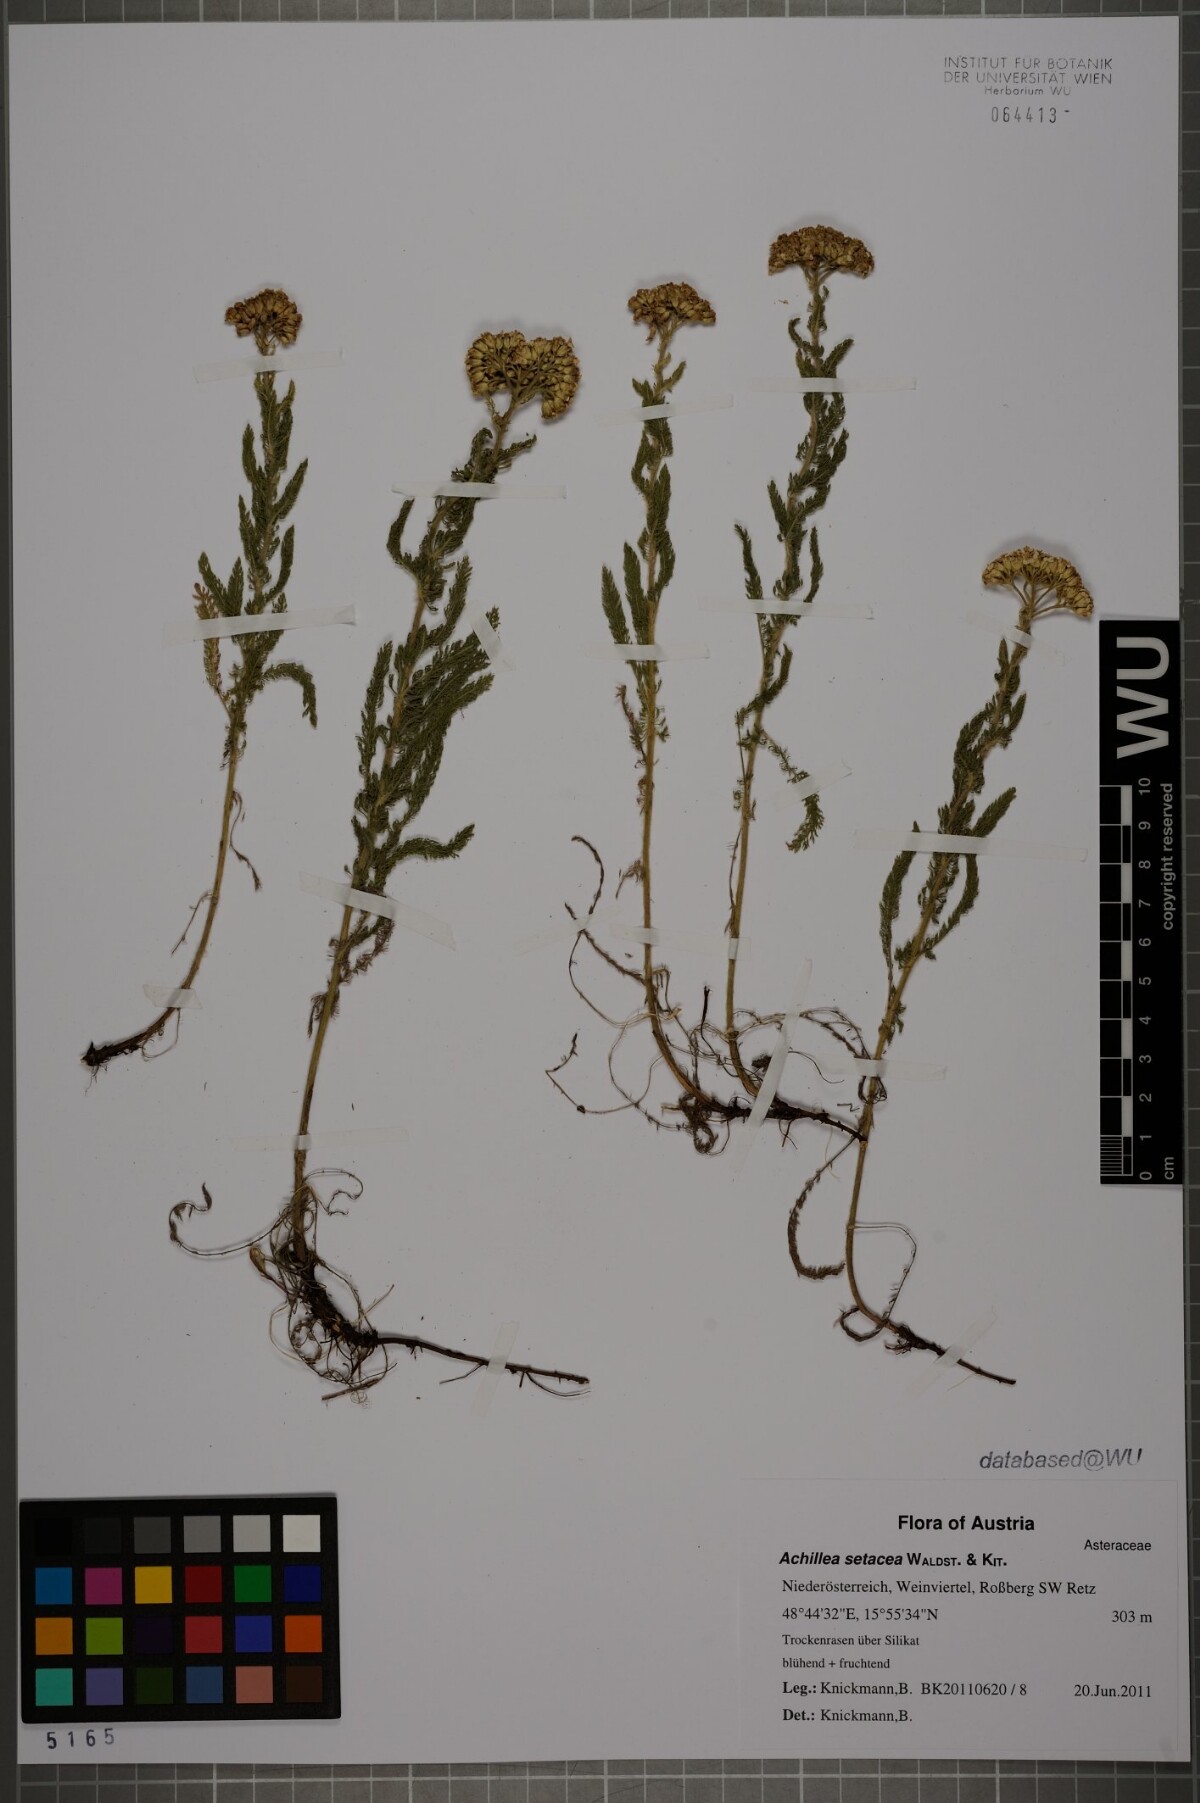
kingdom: Plantae
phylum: Tracheophyta
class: Magnoliopsida
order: Asterales
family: Asteraceae
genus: Achillea
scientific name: Achillea setacea
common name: Bristly yarrow
